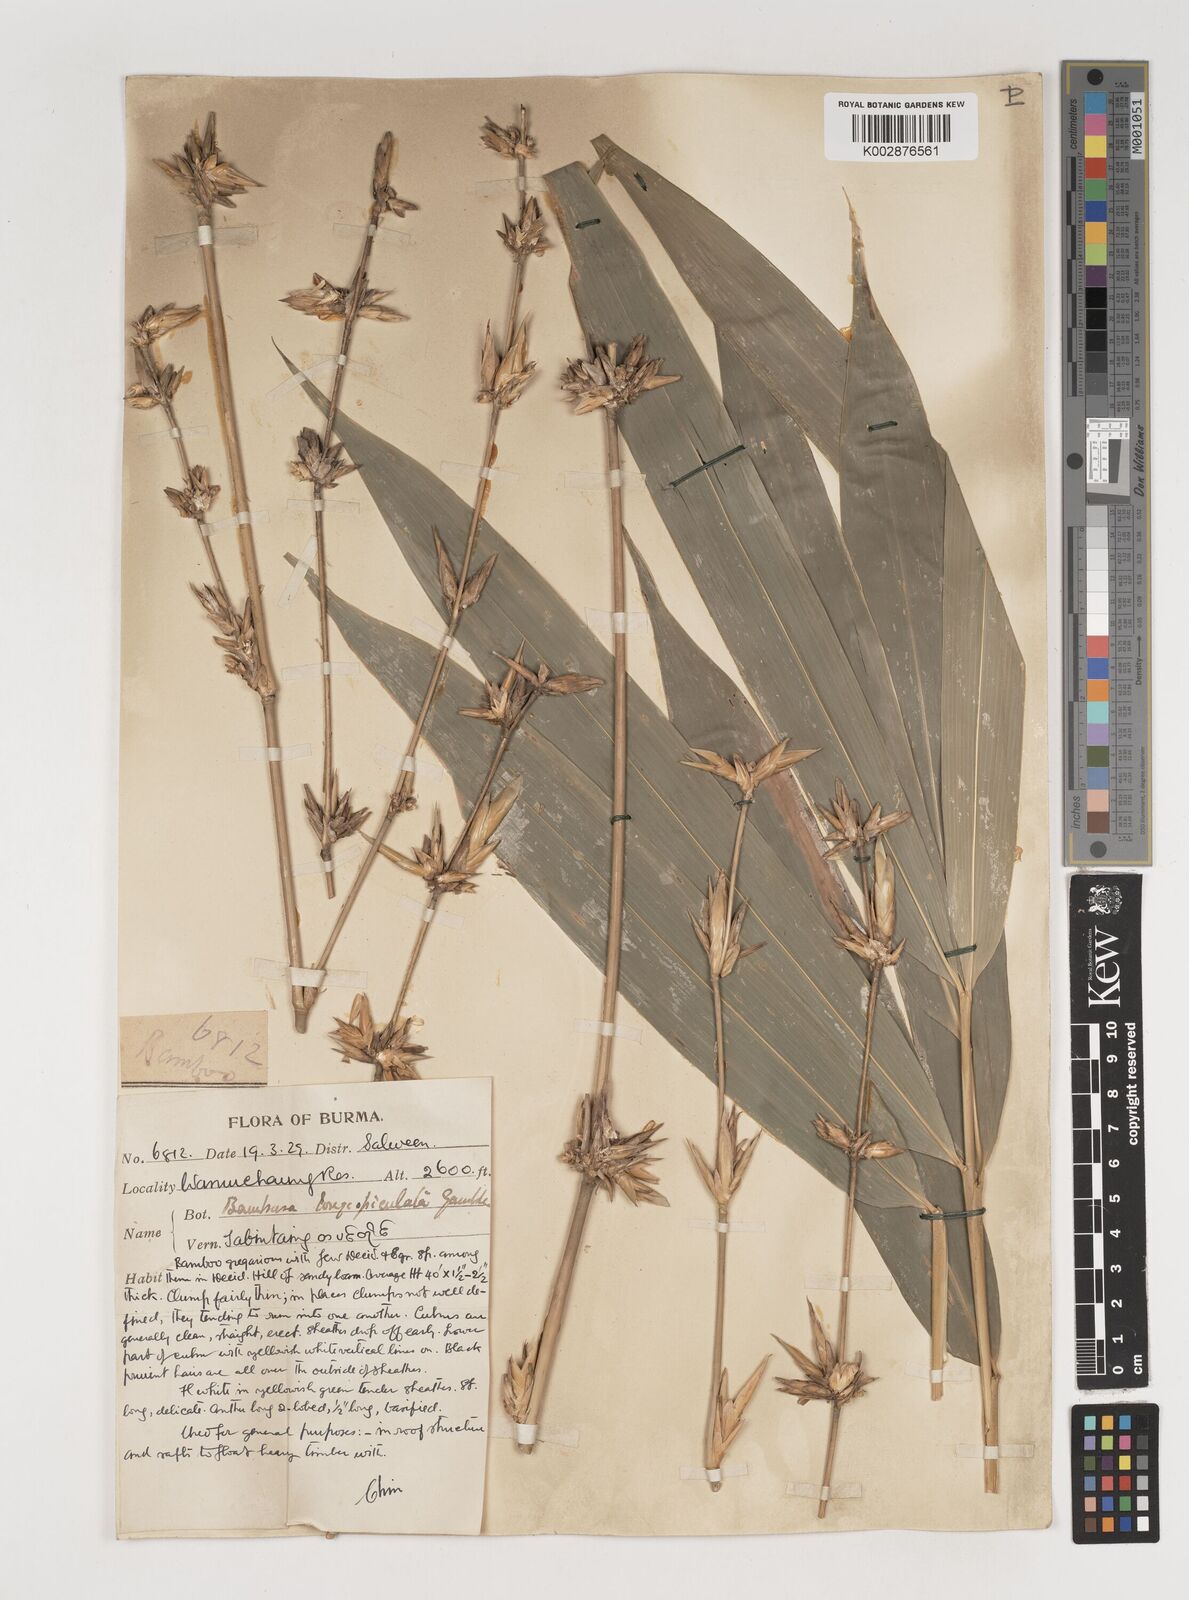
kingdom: Plantae
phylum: Tracheophyta
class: Liliopsida
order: Poales
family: Poaceae
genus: Bambusa
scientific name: Bambusa longispiculata
